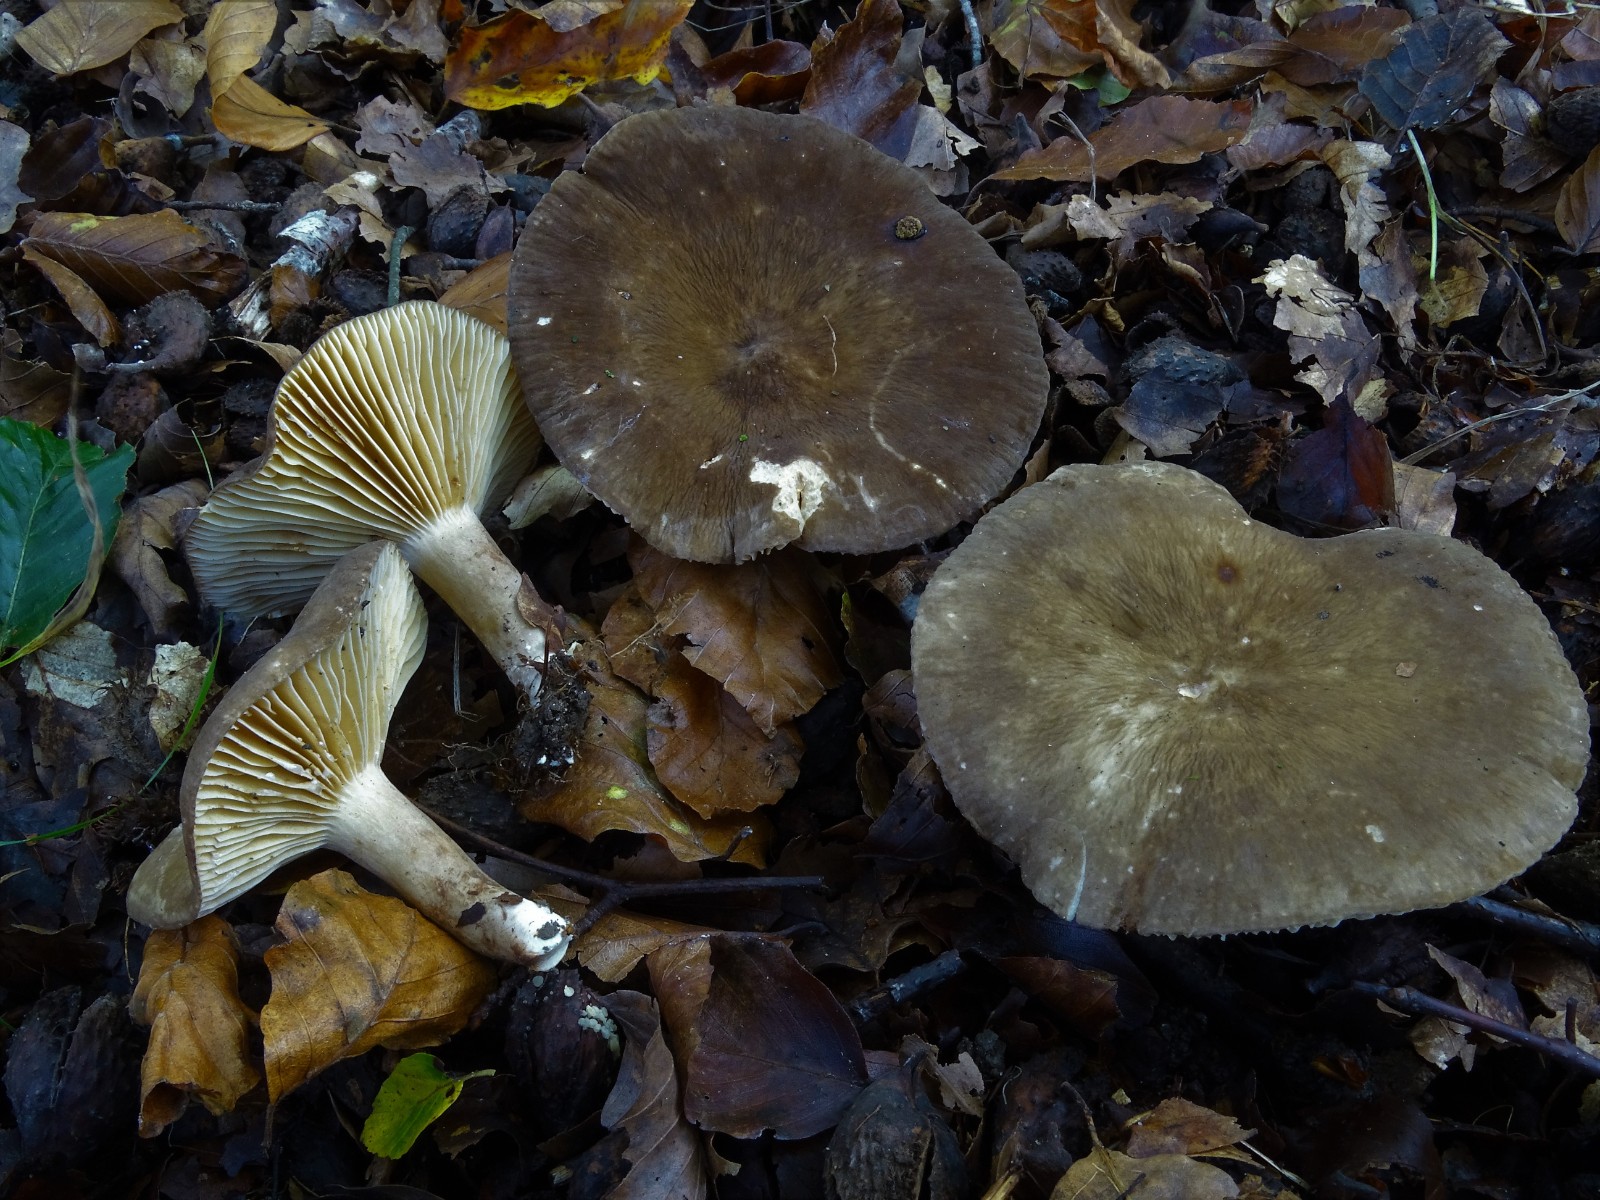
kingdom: Fungi
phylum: Basidiomycota
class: Agaricomycetes
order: Russulales
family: Russulaceae
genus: Lactarius
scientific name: Lactarius pterosporus
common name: vingesporet mælkehat
